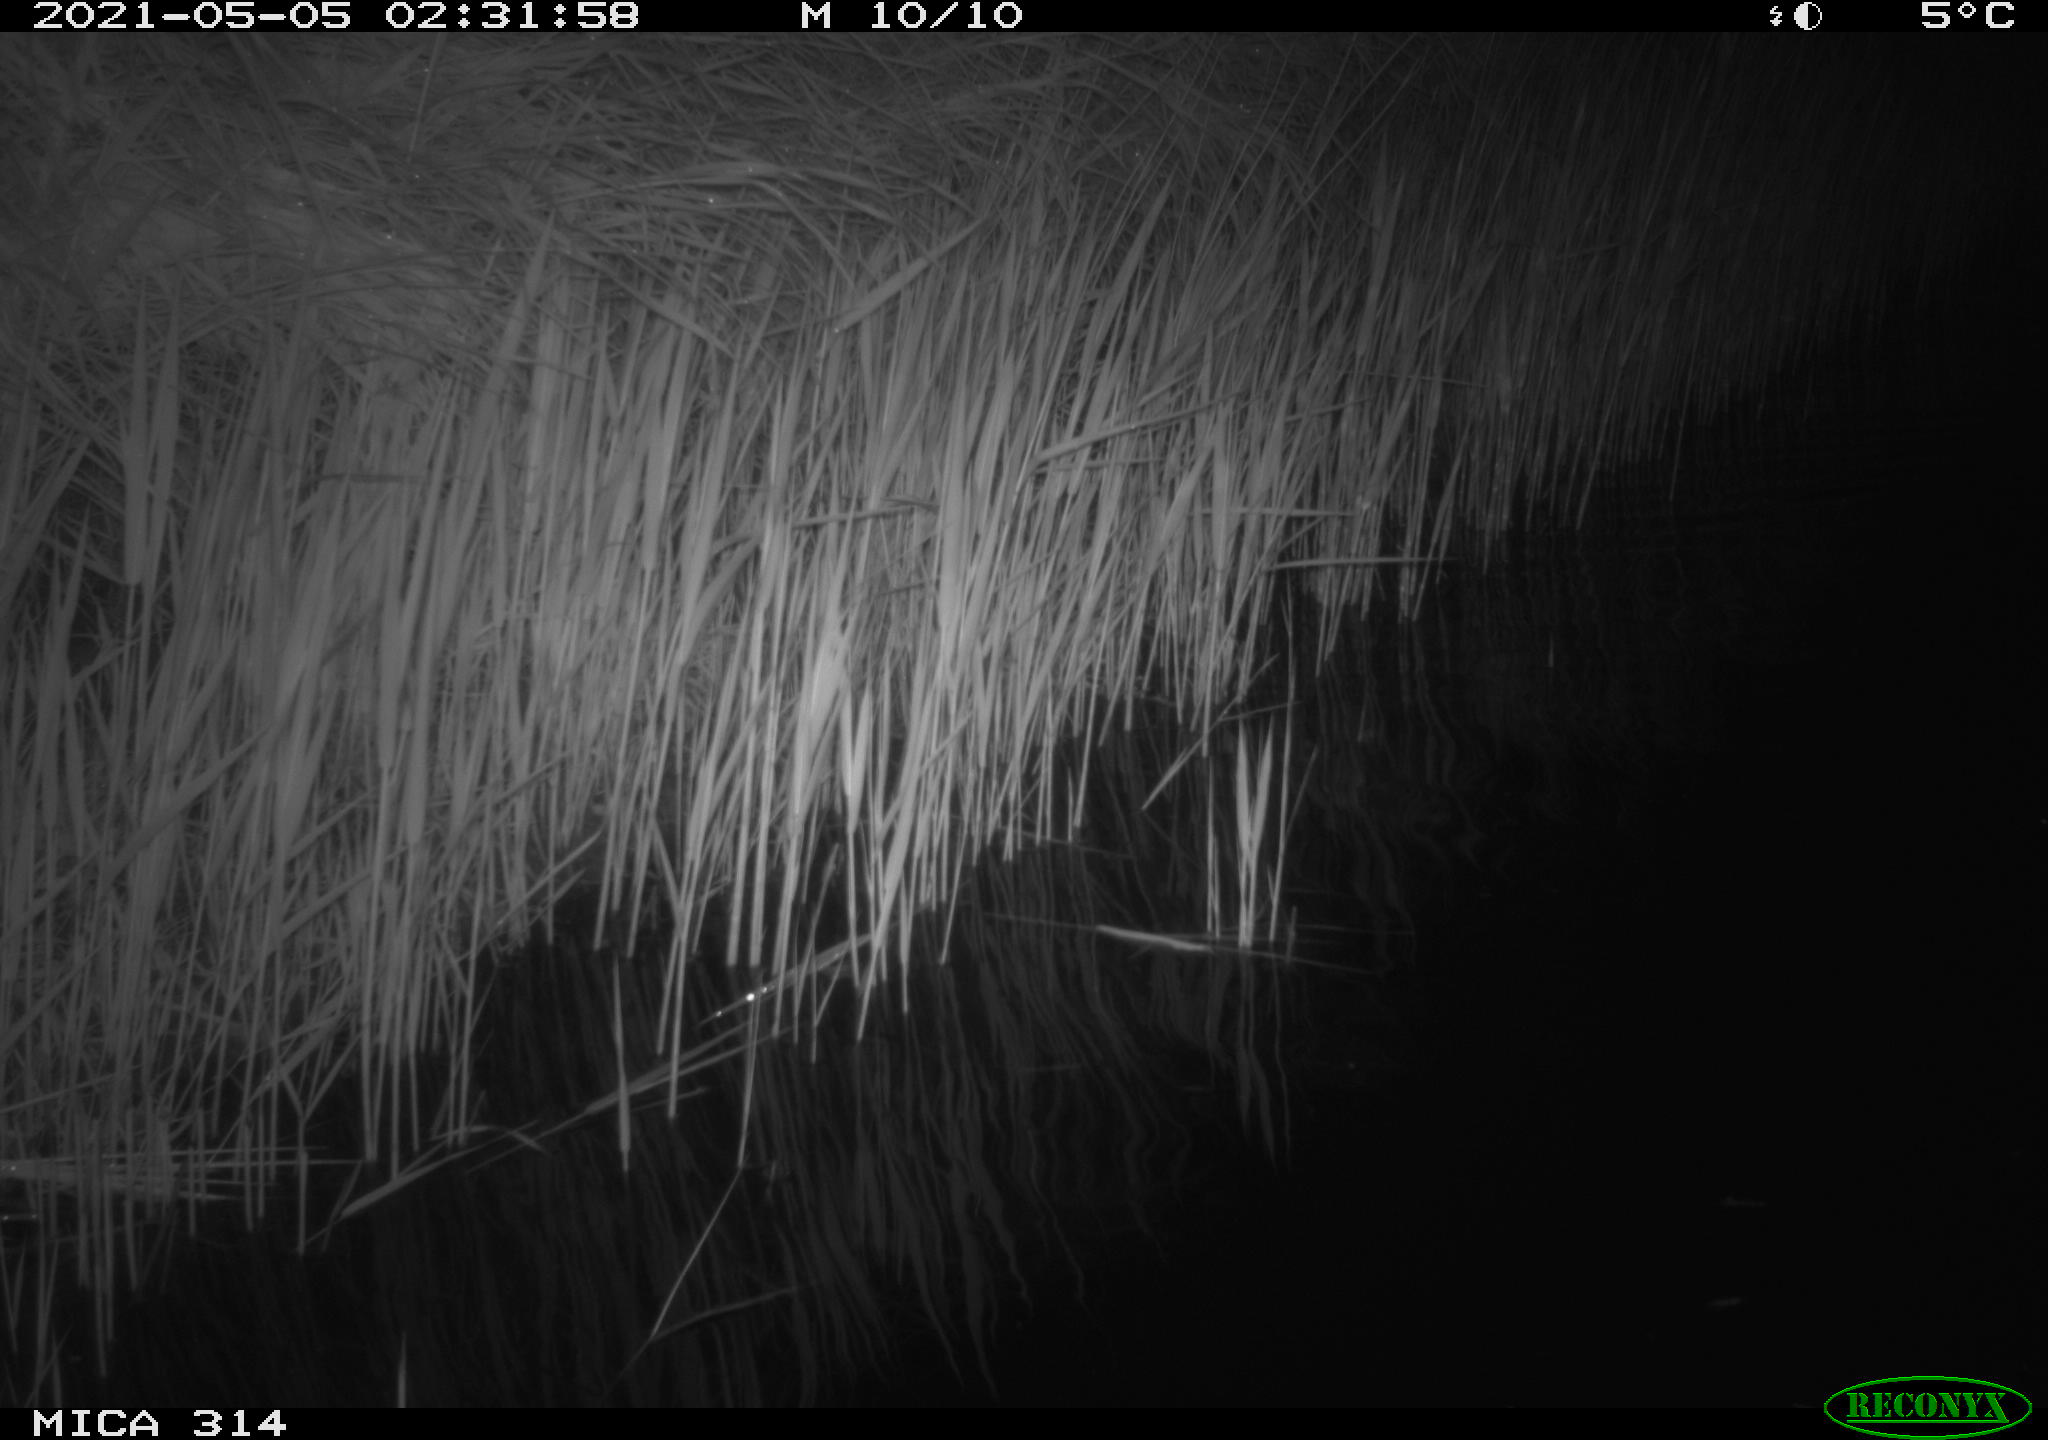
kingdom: Animalia
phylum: Chordata
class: Aves
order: Anseriformes
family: Anatidae
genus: Anas
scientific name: Anas platyrhynchos
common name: Mallard
